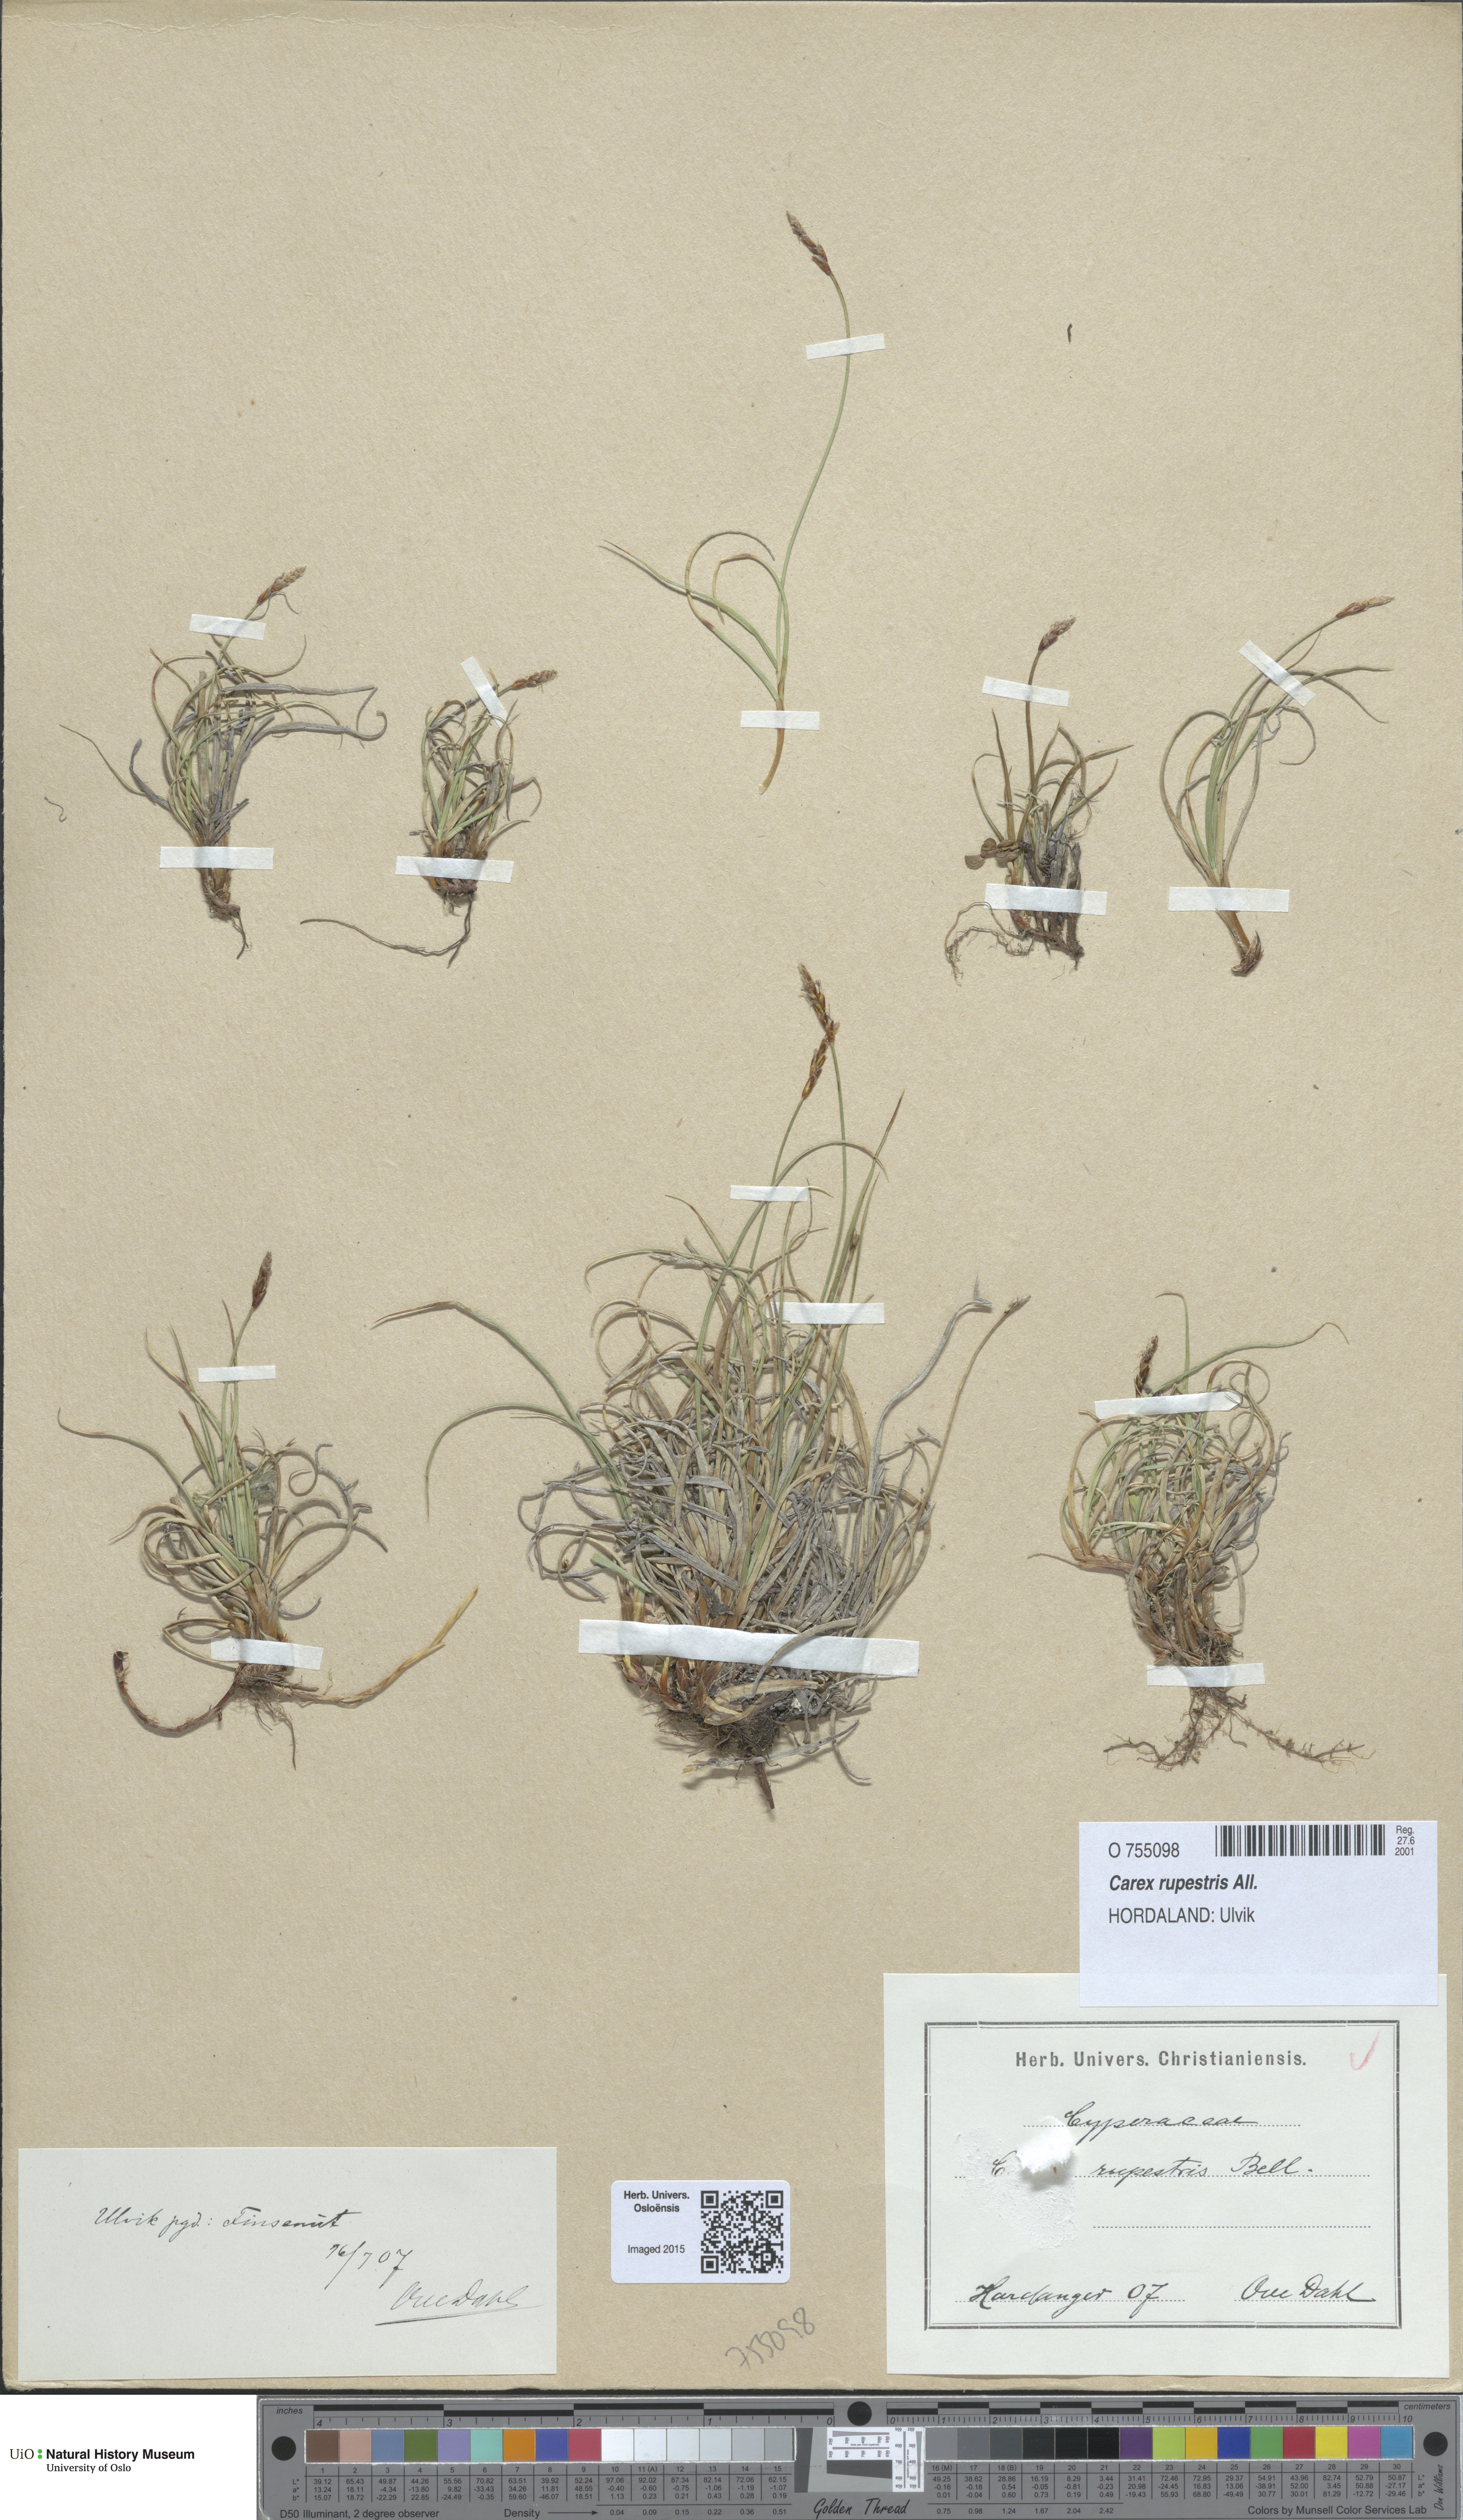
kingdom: Plantae
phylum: Tracheophyta
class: Liliopsida
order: Poales
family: Cyperaceae
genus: Carex
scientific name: Carex rupestris
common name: Rock sedge
